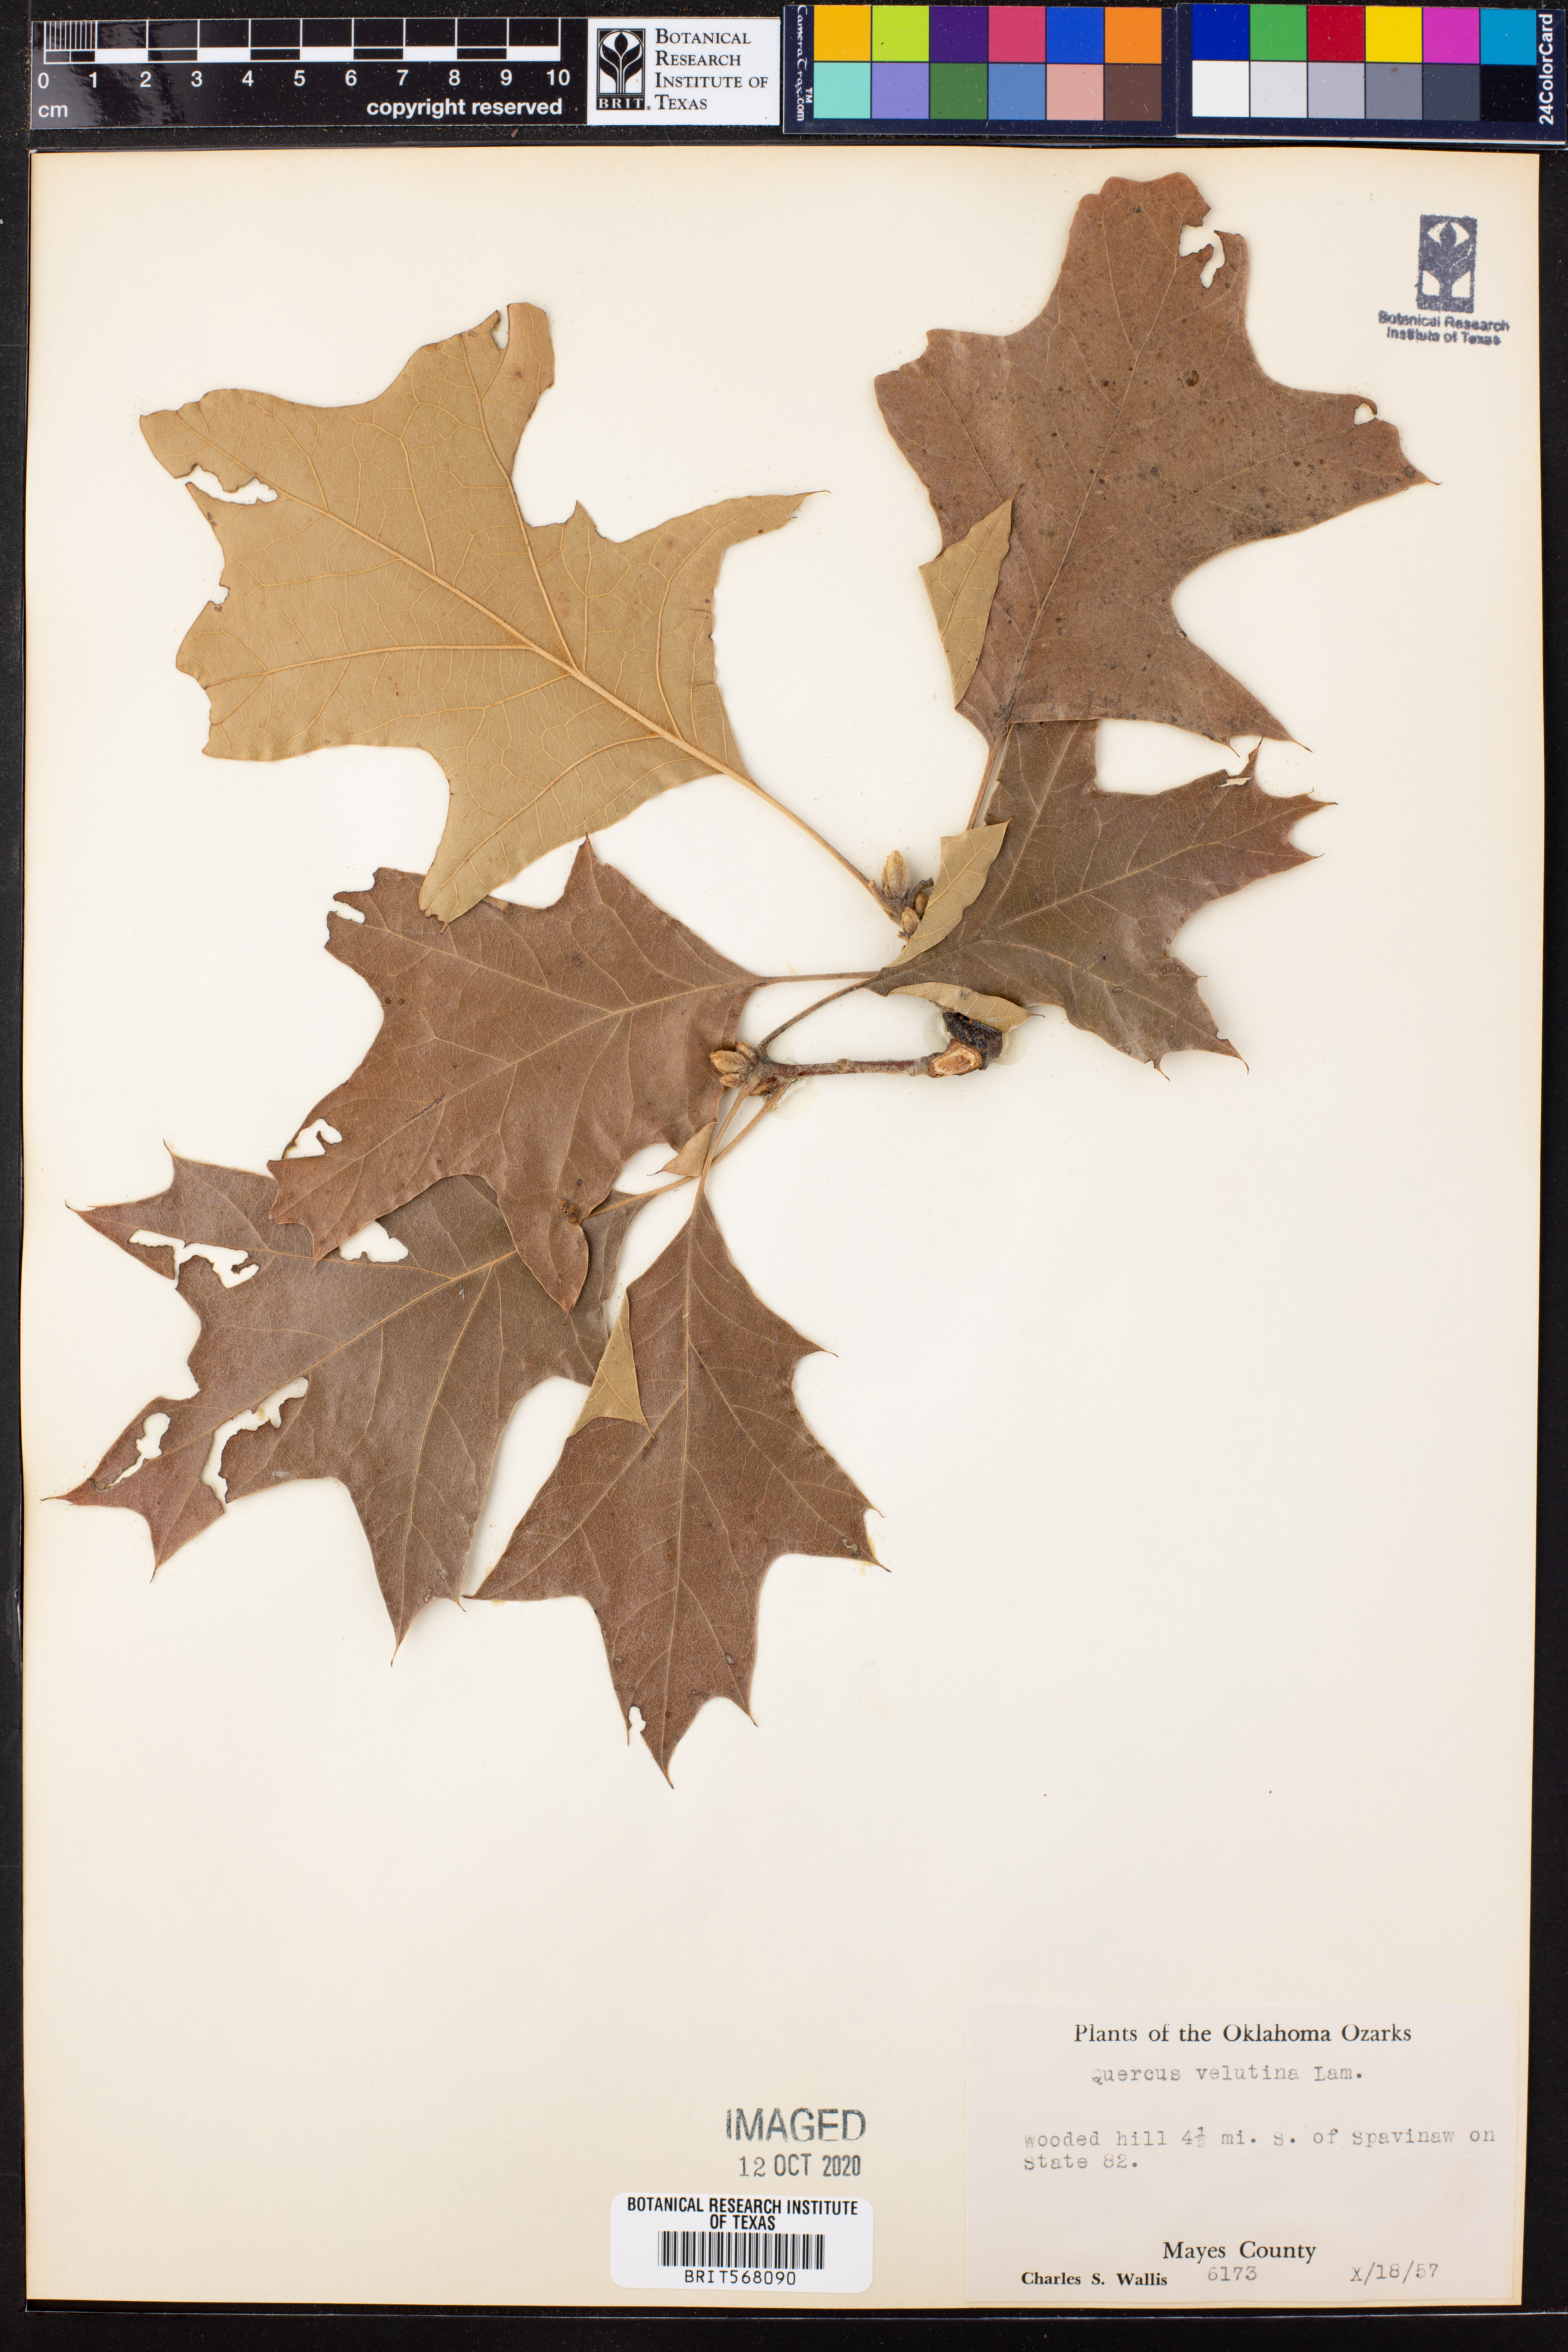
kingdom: Plantae
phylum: Tracheophyta
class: Magnoliopsida
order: Fagales
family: Fagaceae
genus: Quercus
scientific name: Quercus velutina
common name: Black oak
